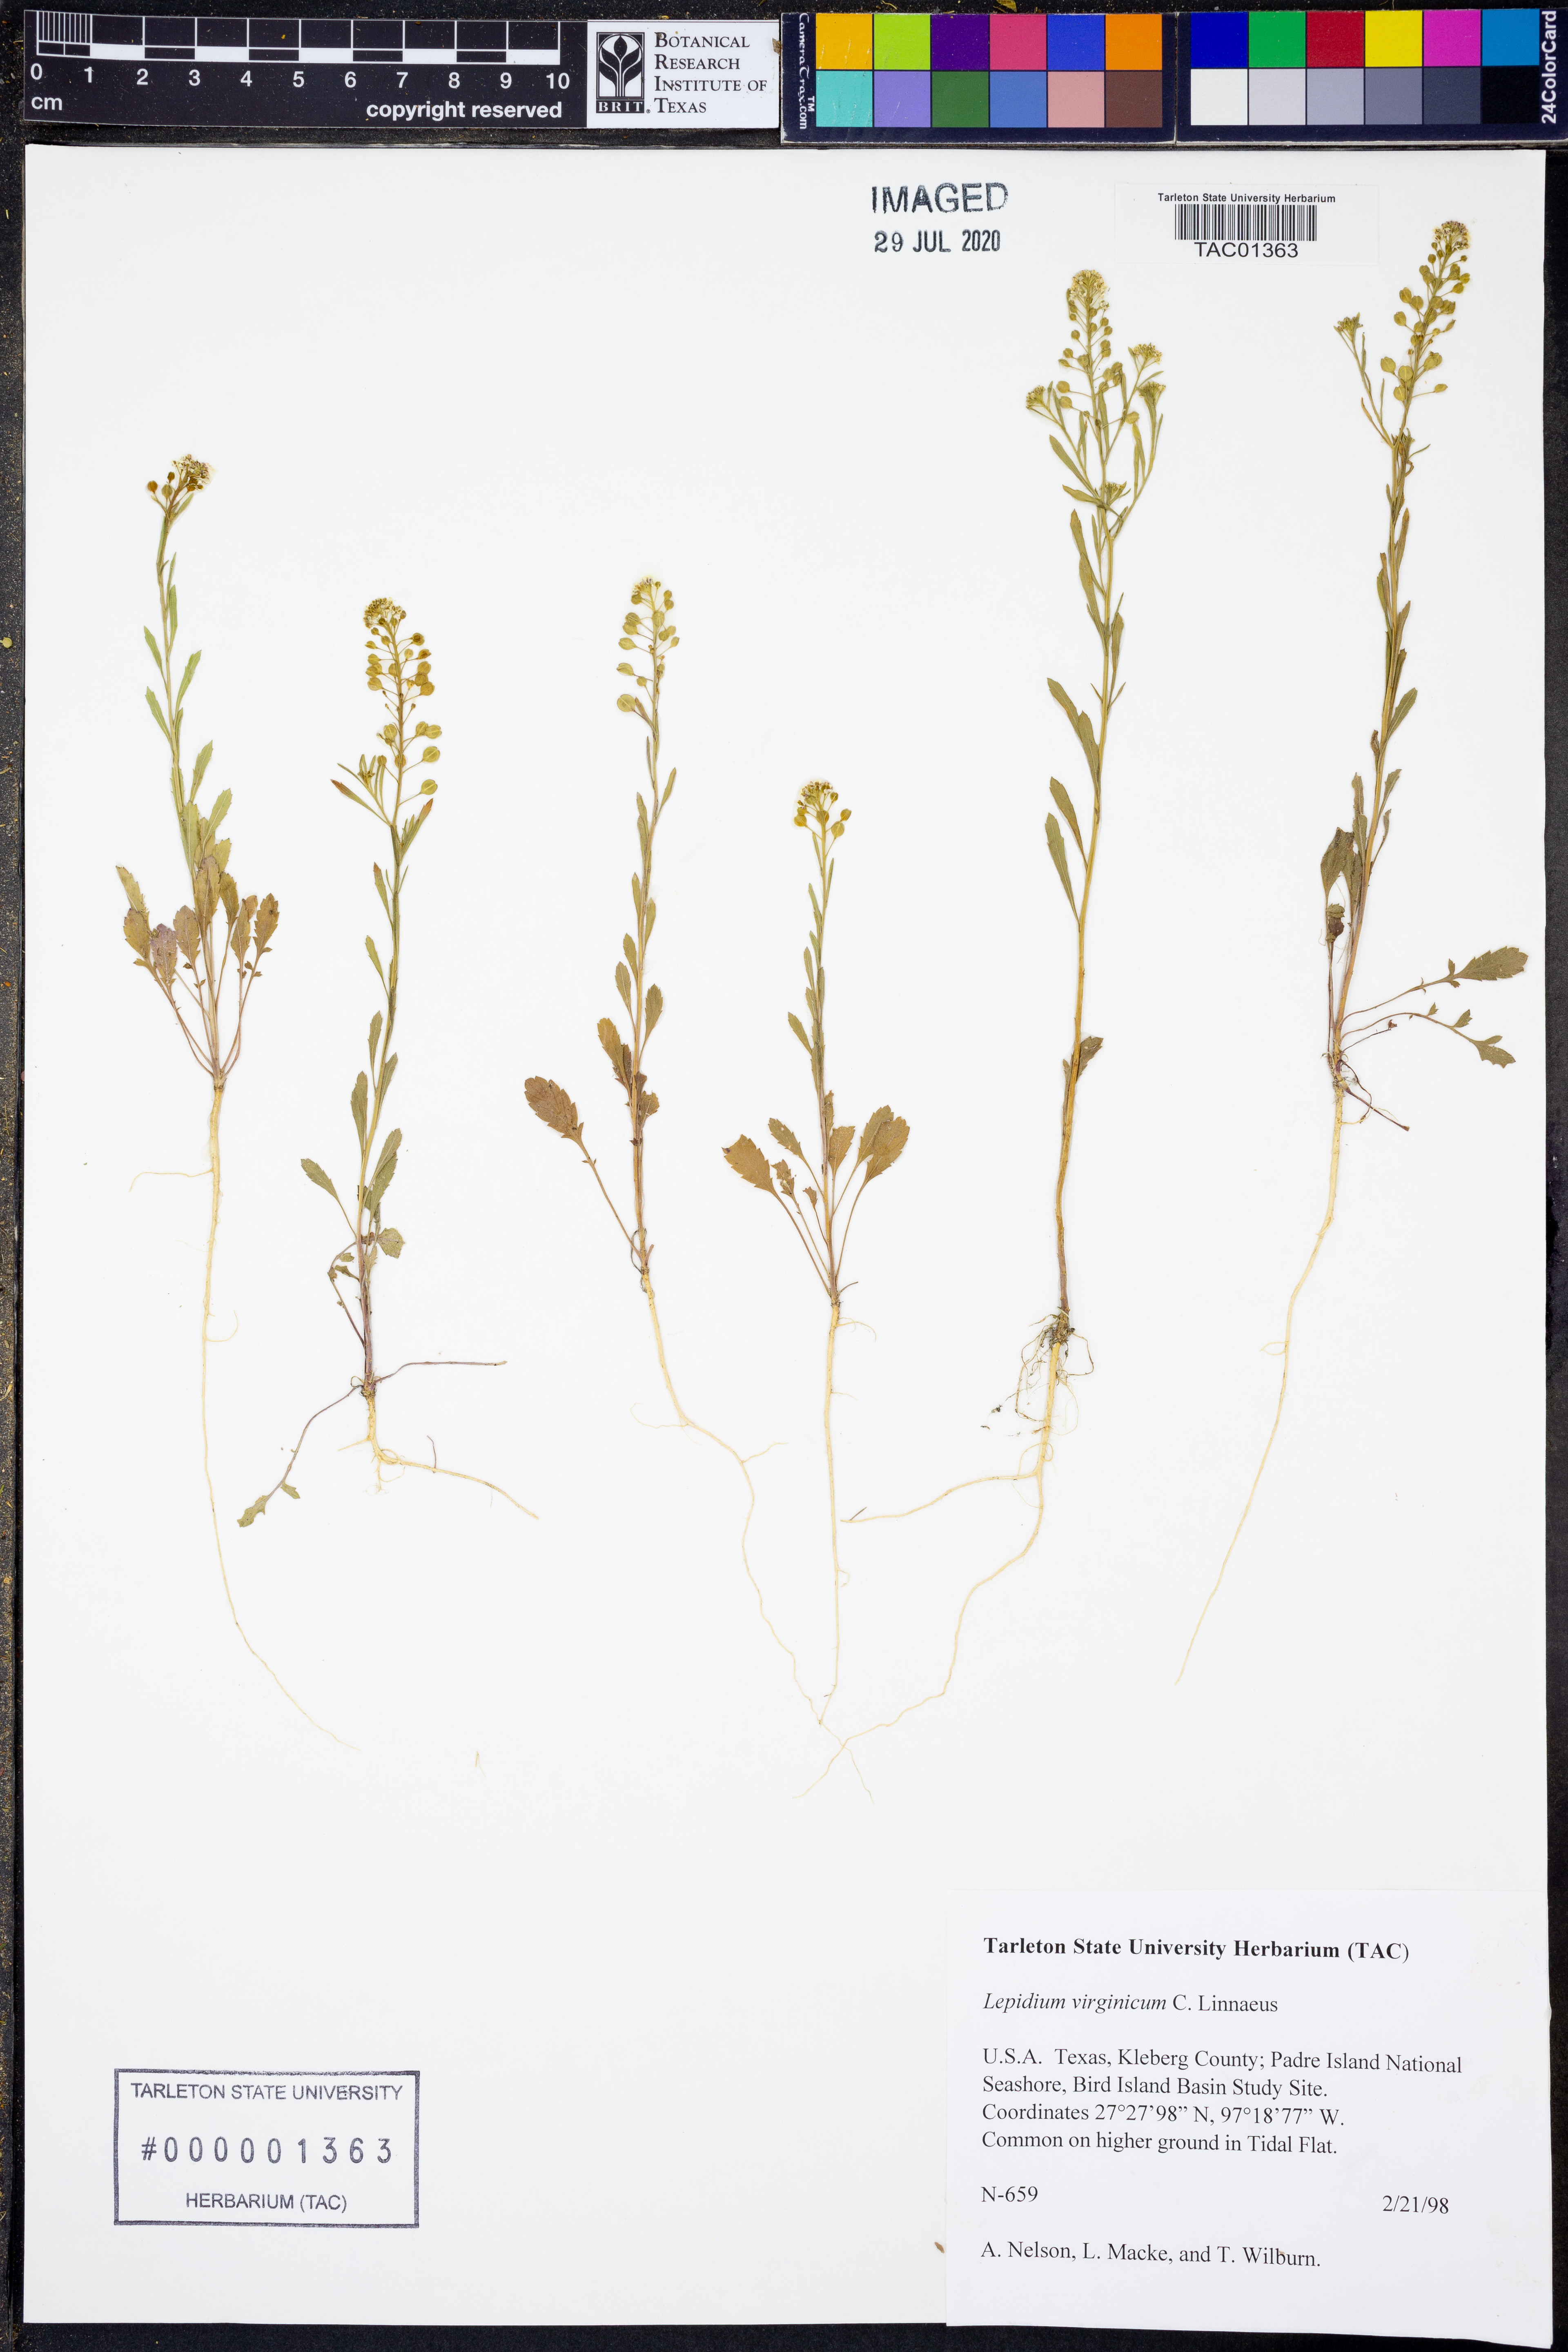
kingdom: Plantae
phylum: Tracheophyta
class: Magnoliopsida
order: Brassicales
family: Brassicaceae
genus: Lepidium
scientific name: Lepidium virginicum
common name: Least pepperwort
